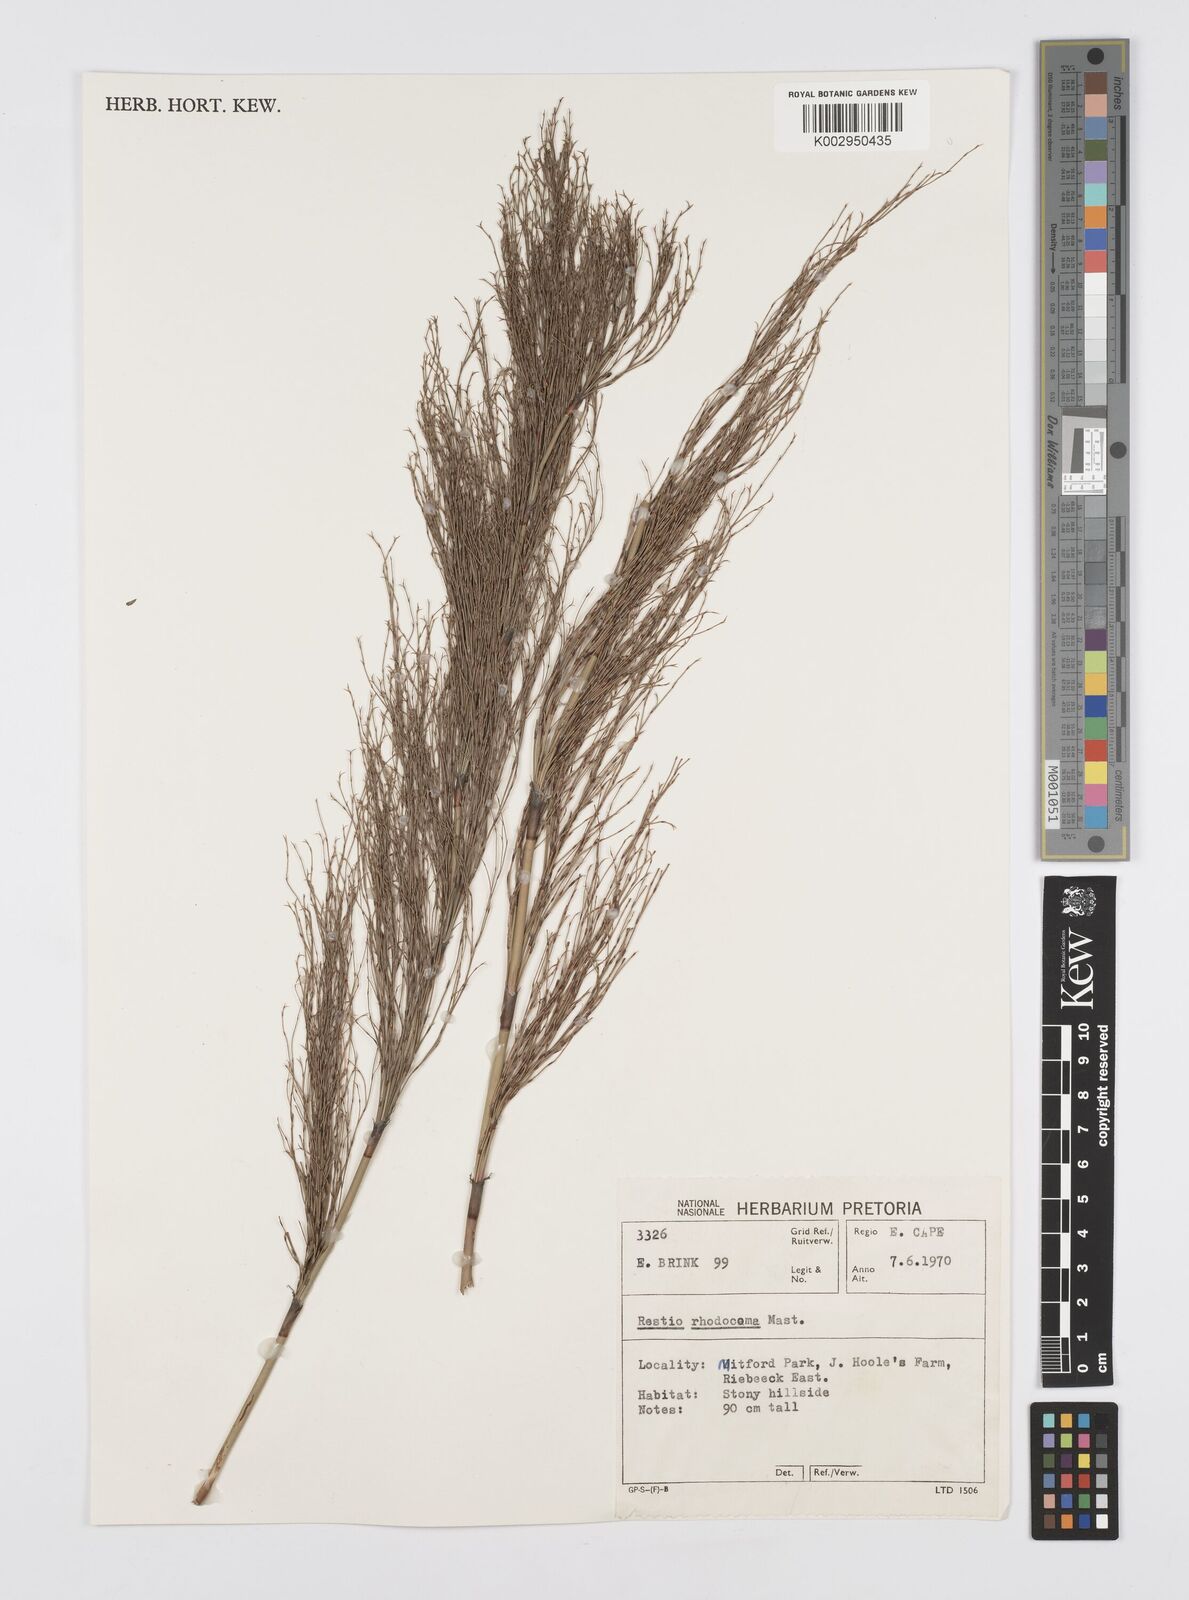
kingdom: Plantae
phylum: Tracheophyta
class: Liliopsida
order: Poales
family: Restionaceae
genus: Rhodocoma
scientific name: Rhodocoma capensis
